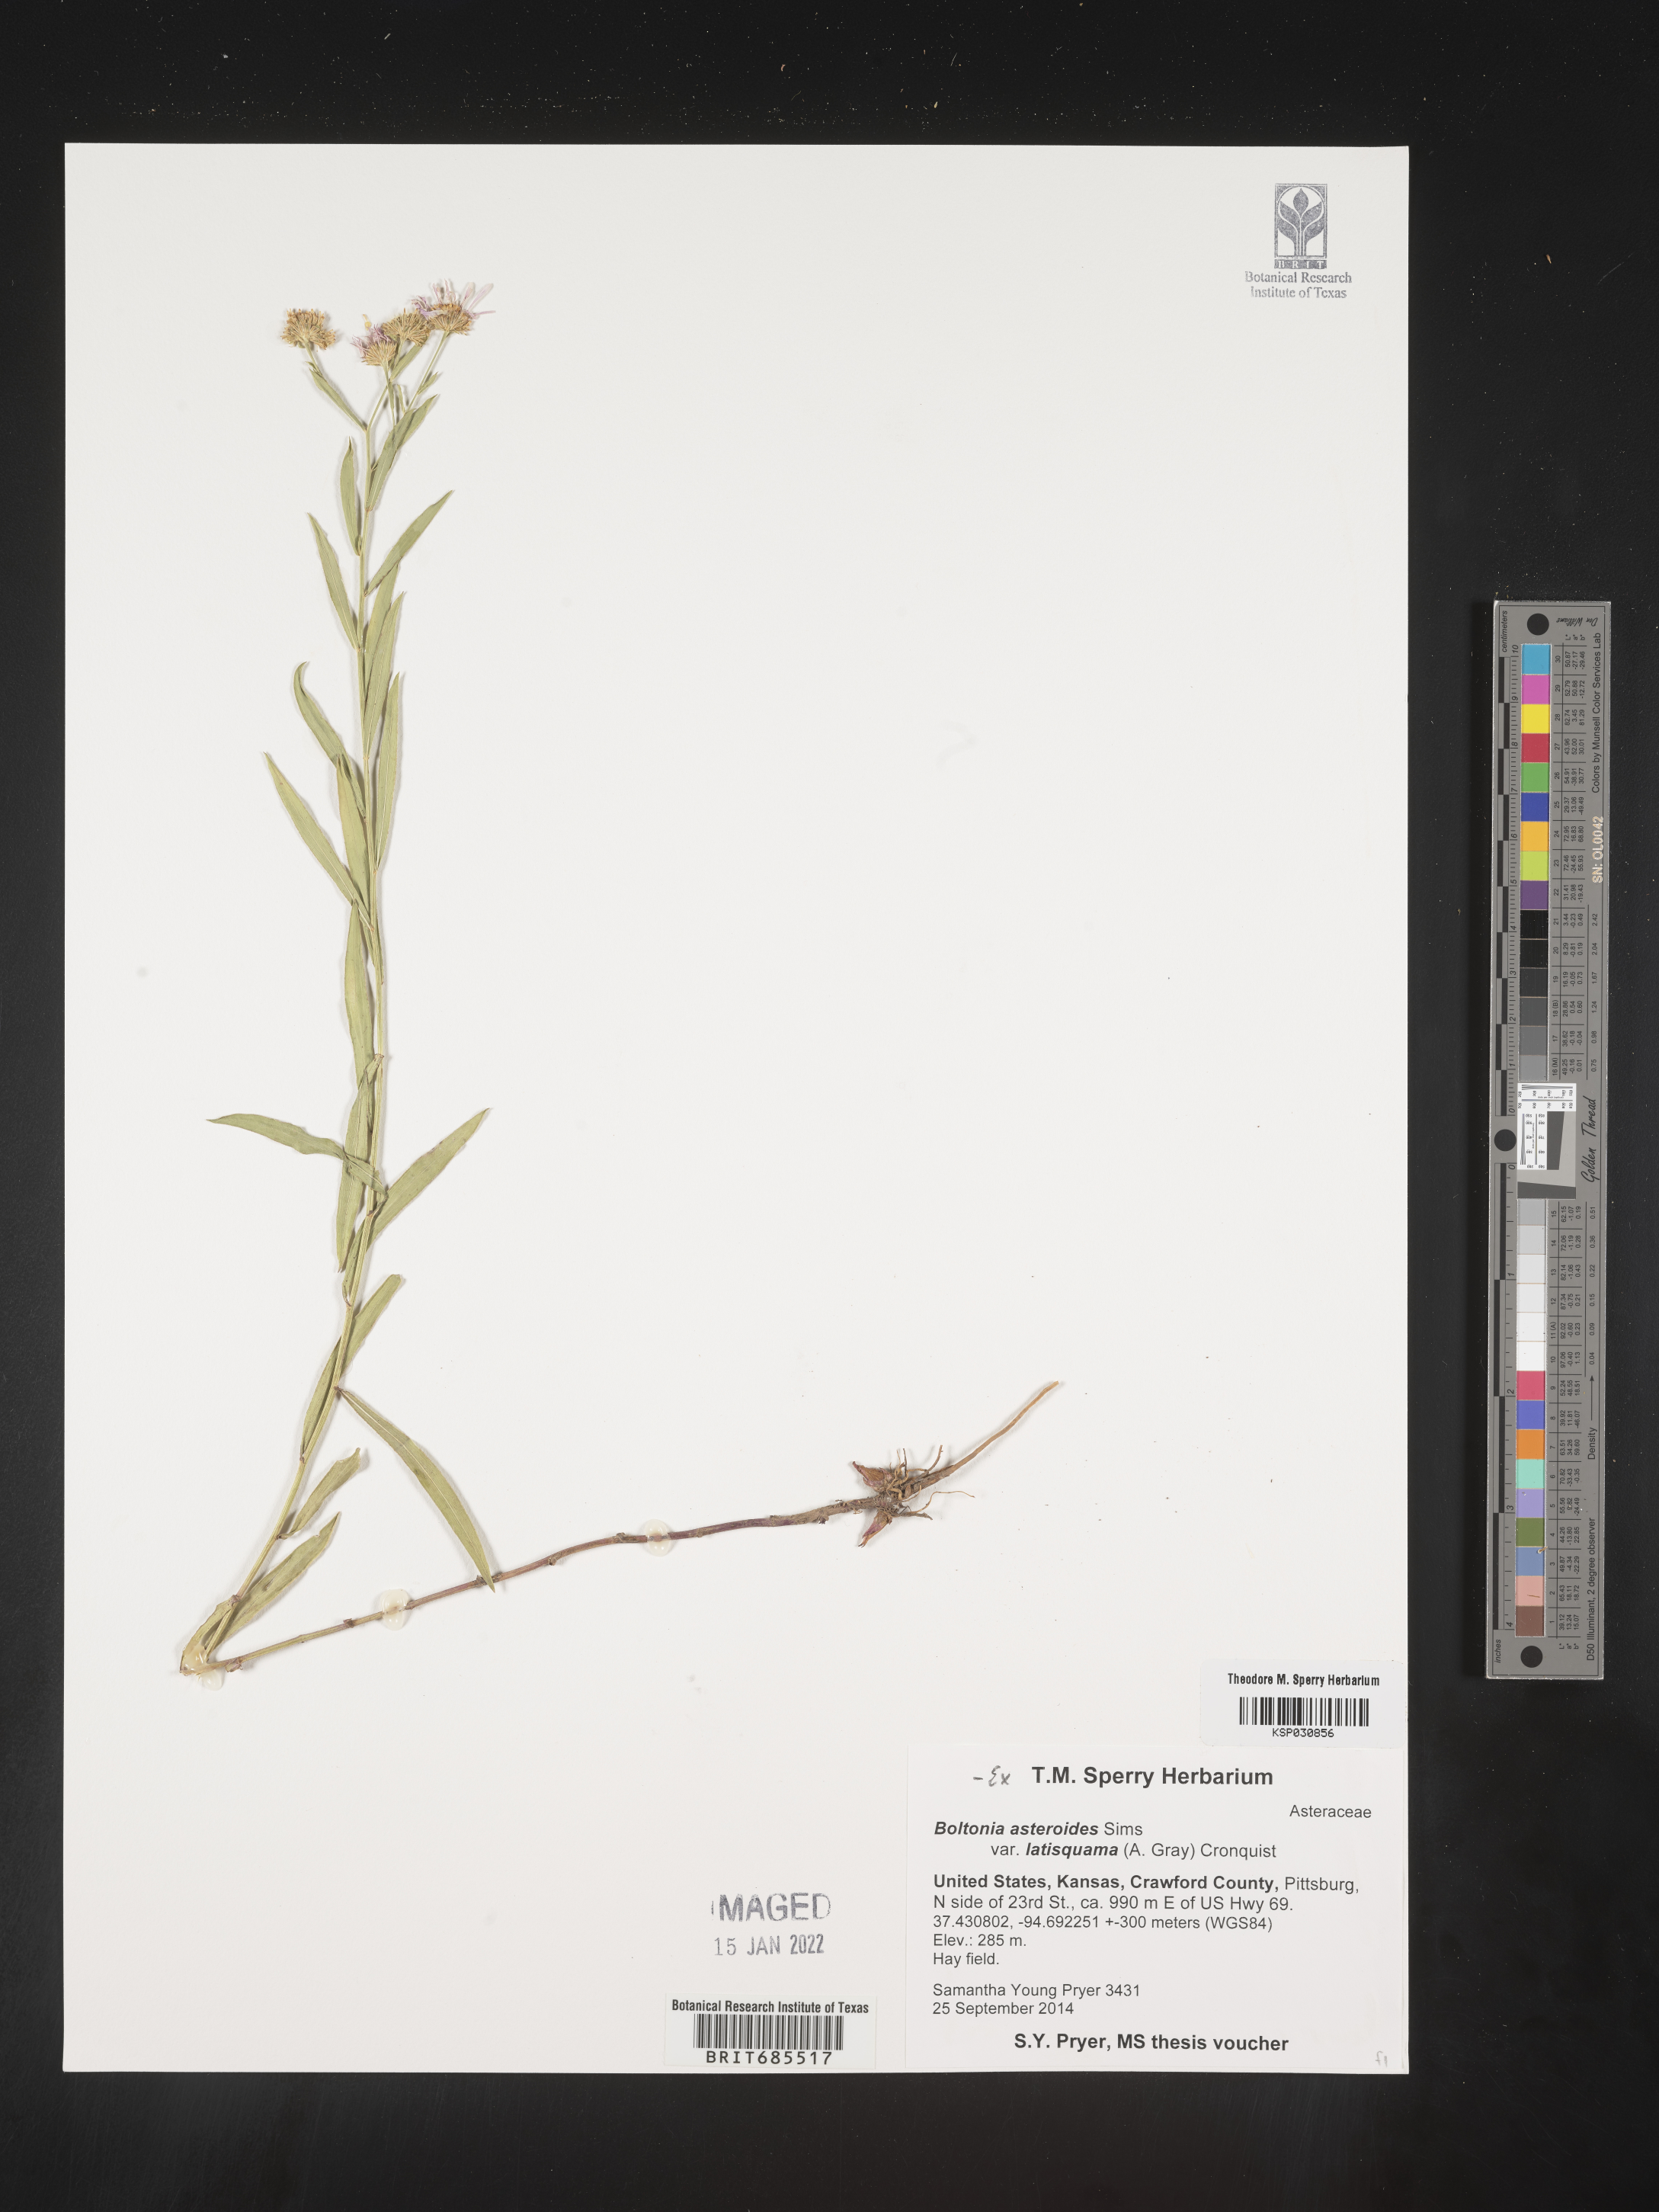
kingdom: Plantae
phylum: Tracheophyta
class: Magnoliopsida
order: Asterales
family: Asteraceae
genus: Boltonia
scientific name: Boltonia asteroides
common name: False chamomile
